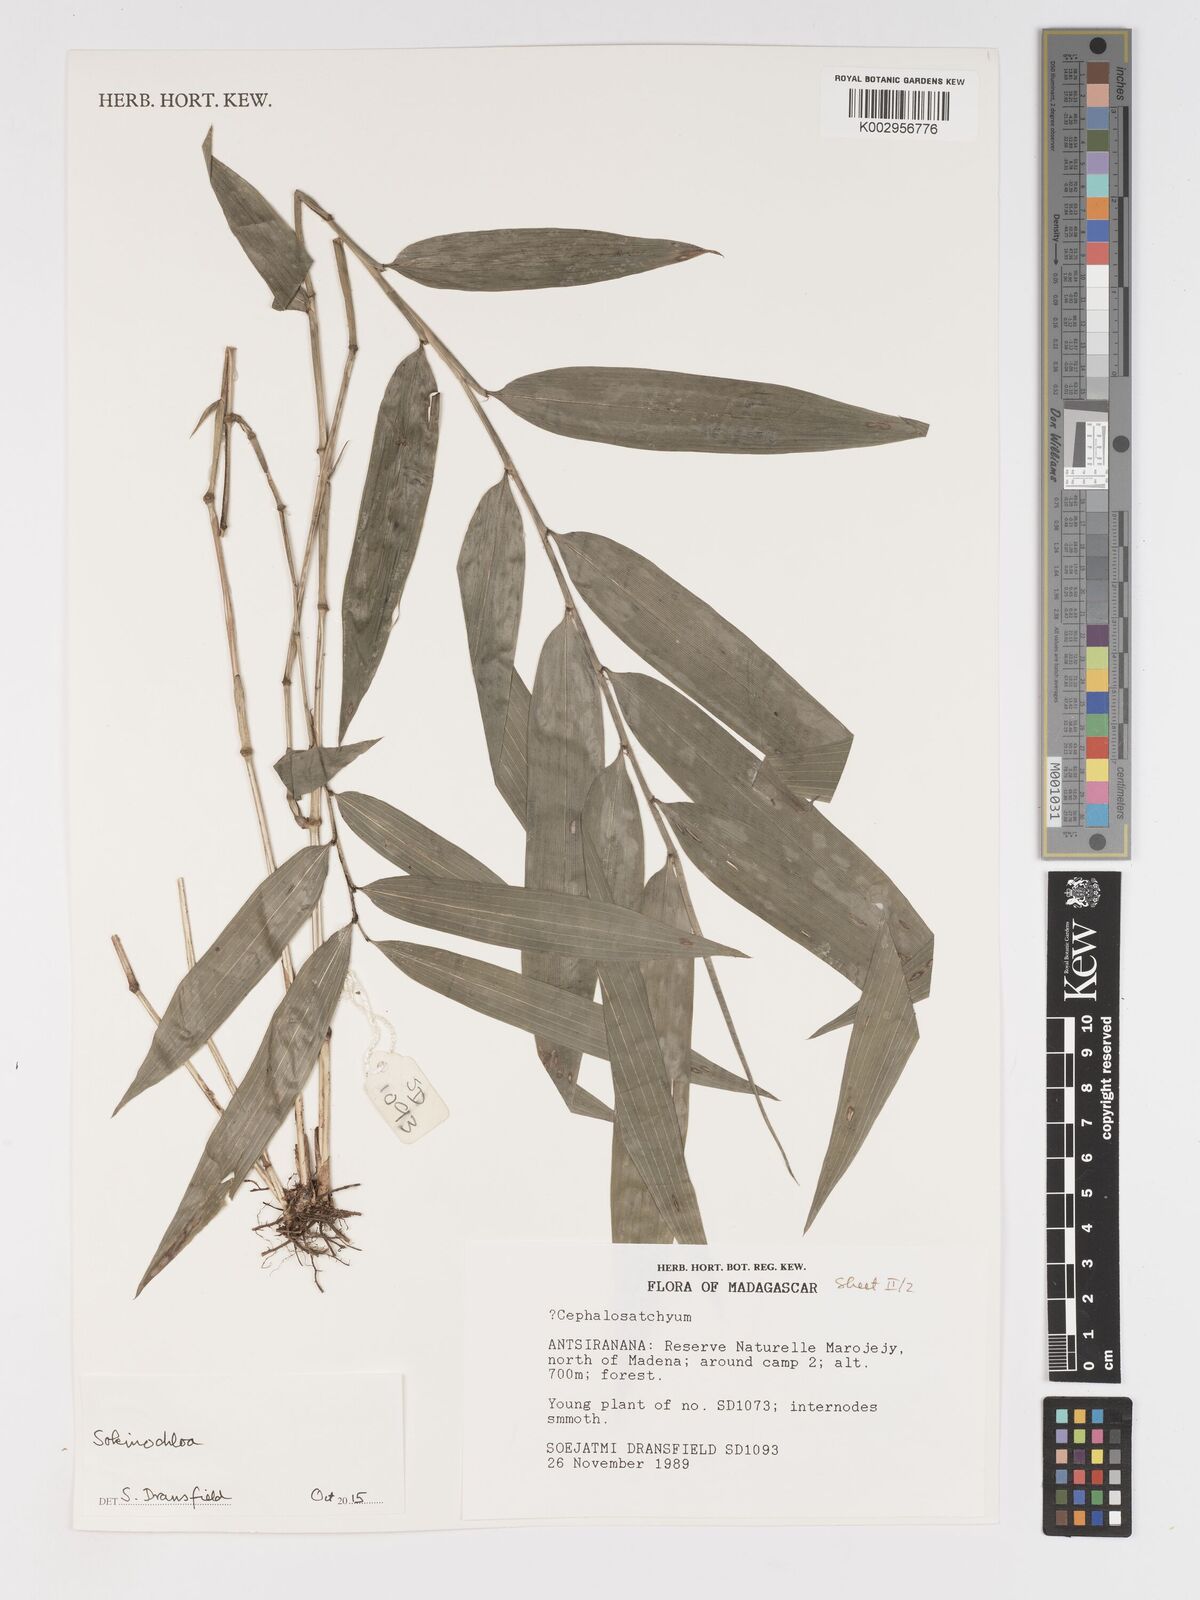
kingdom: Plantae
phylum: Tracheophyta
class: Liliopsida
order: Poales
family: Poaceae
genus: Sokinochloa
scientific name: Sokinochloa
